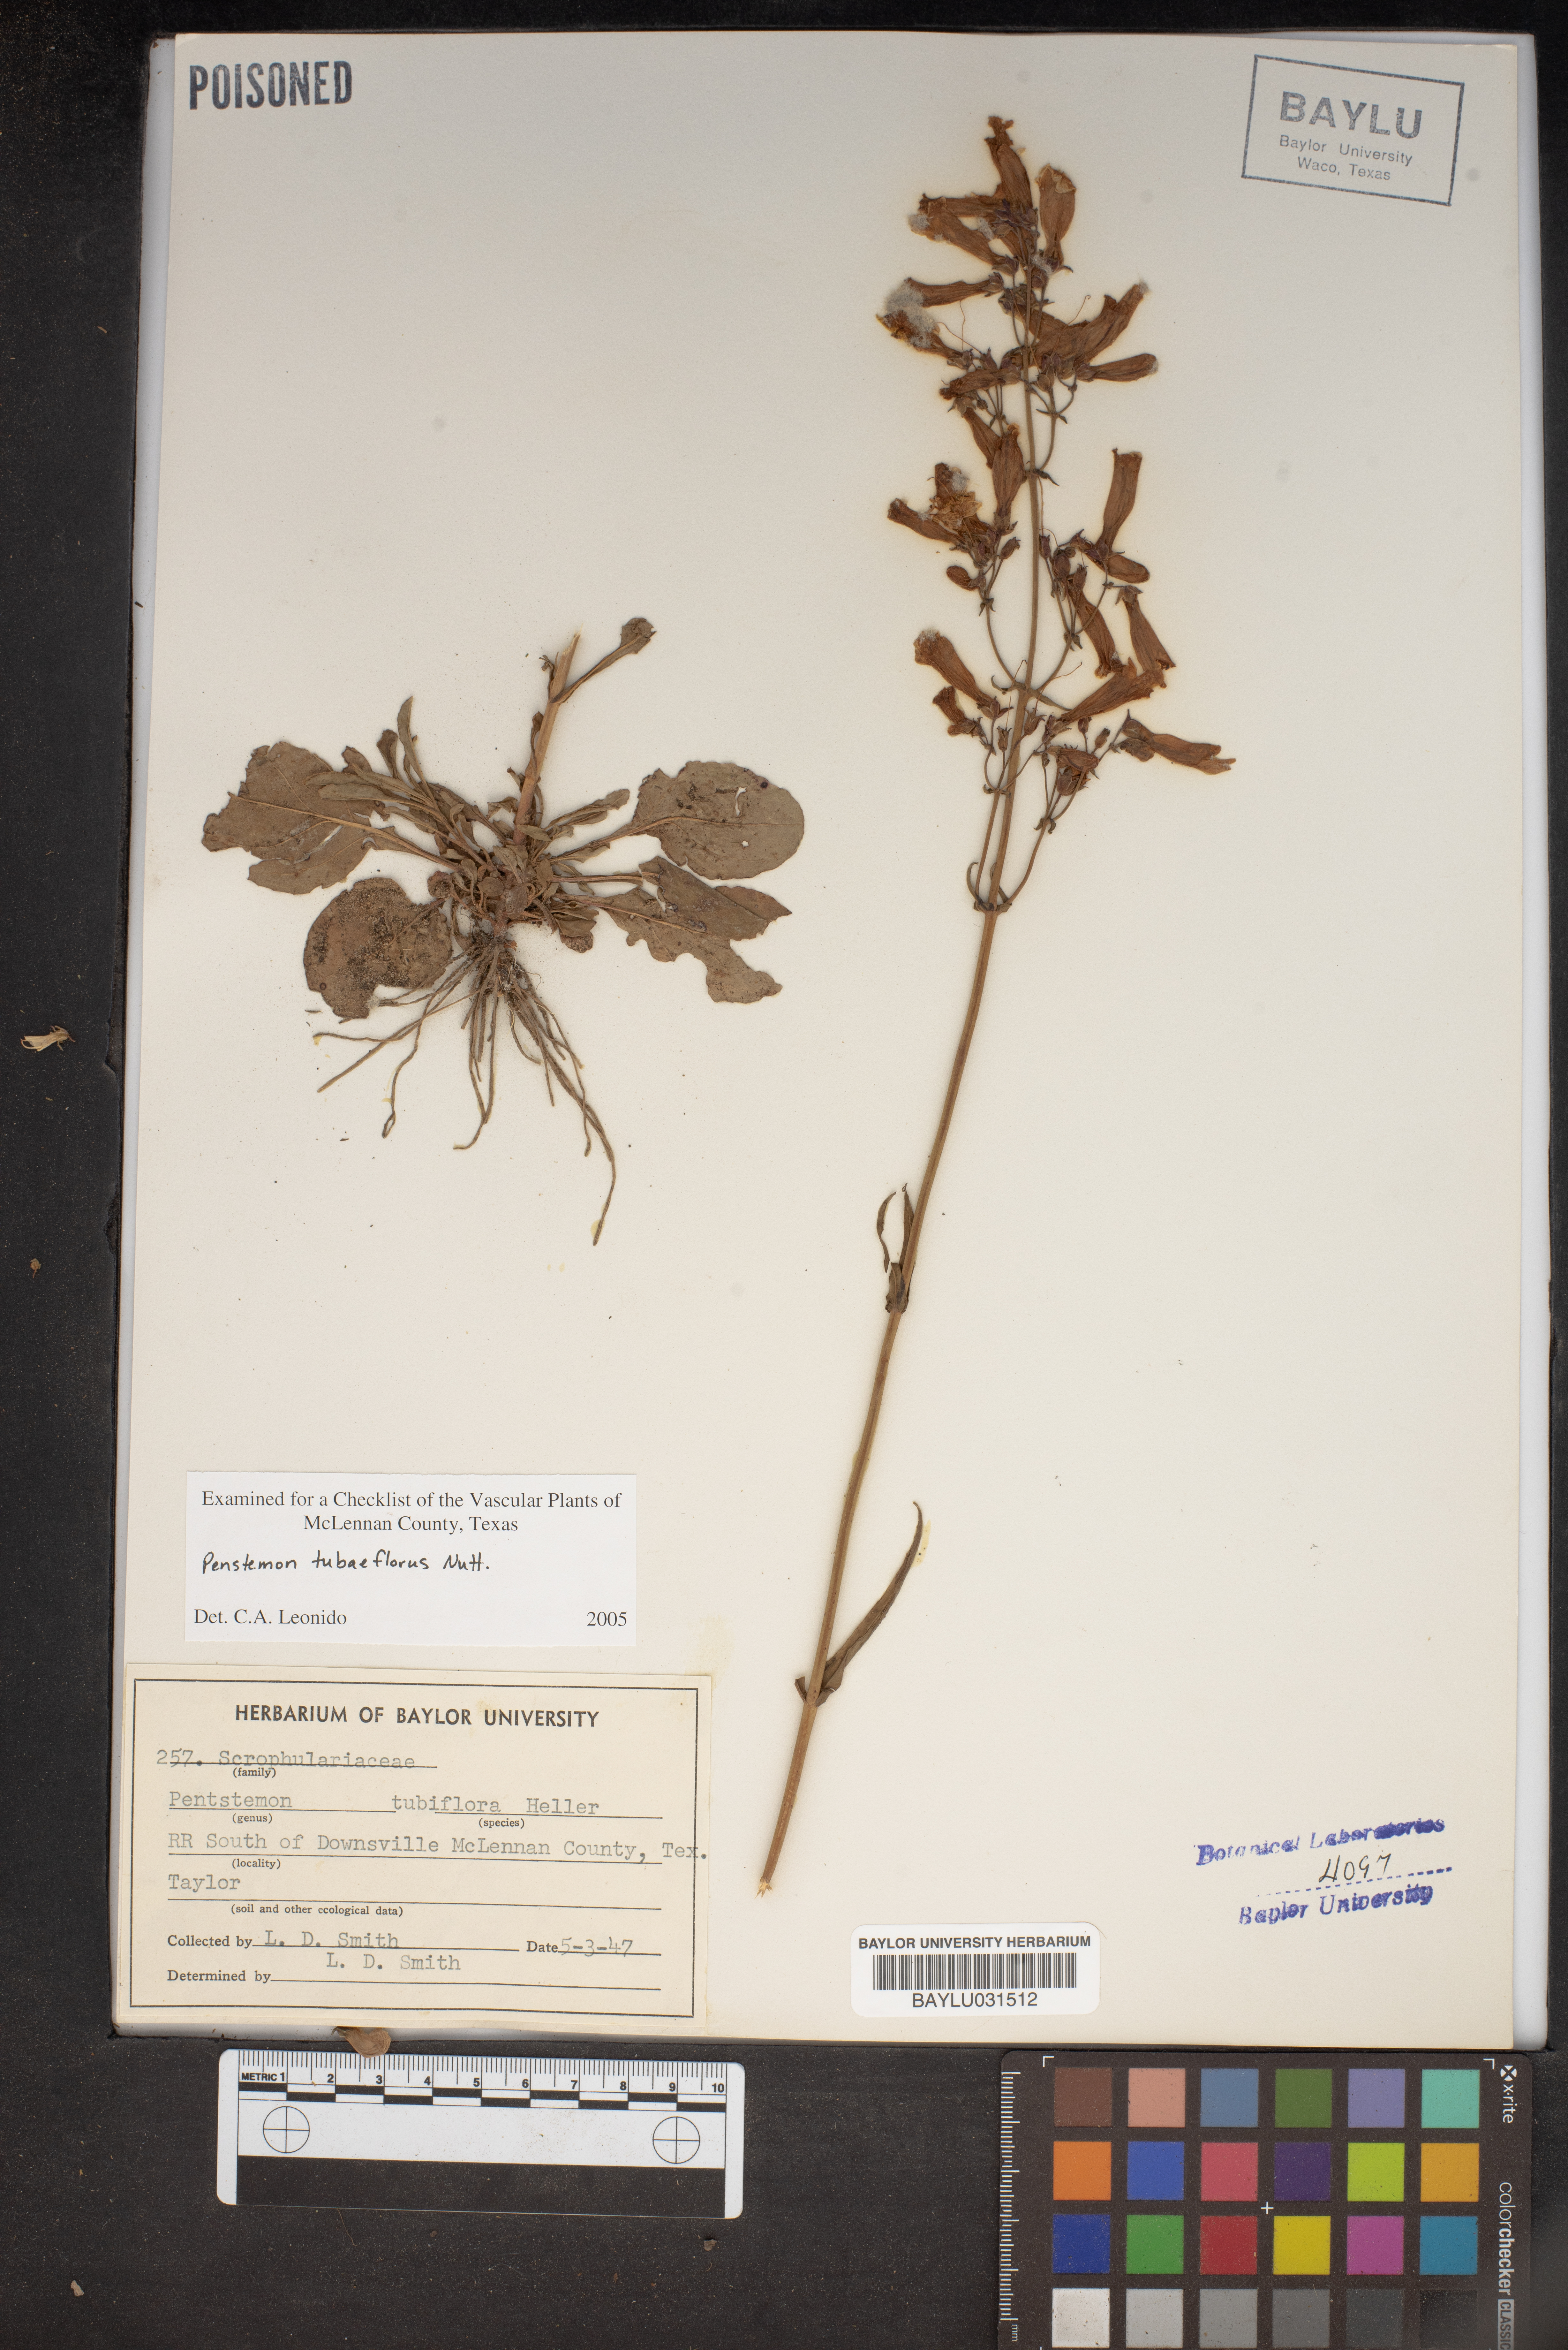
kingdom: Plantae
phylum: Tracheophyta
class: Magnoliopsida
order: Lamiales
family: Plantaginaceae
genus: Penstemon
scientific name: Penstemon tubaeflorus
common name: White wand beardtongue
